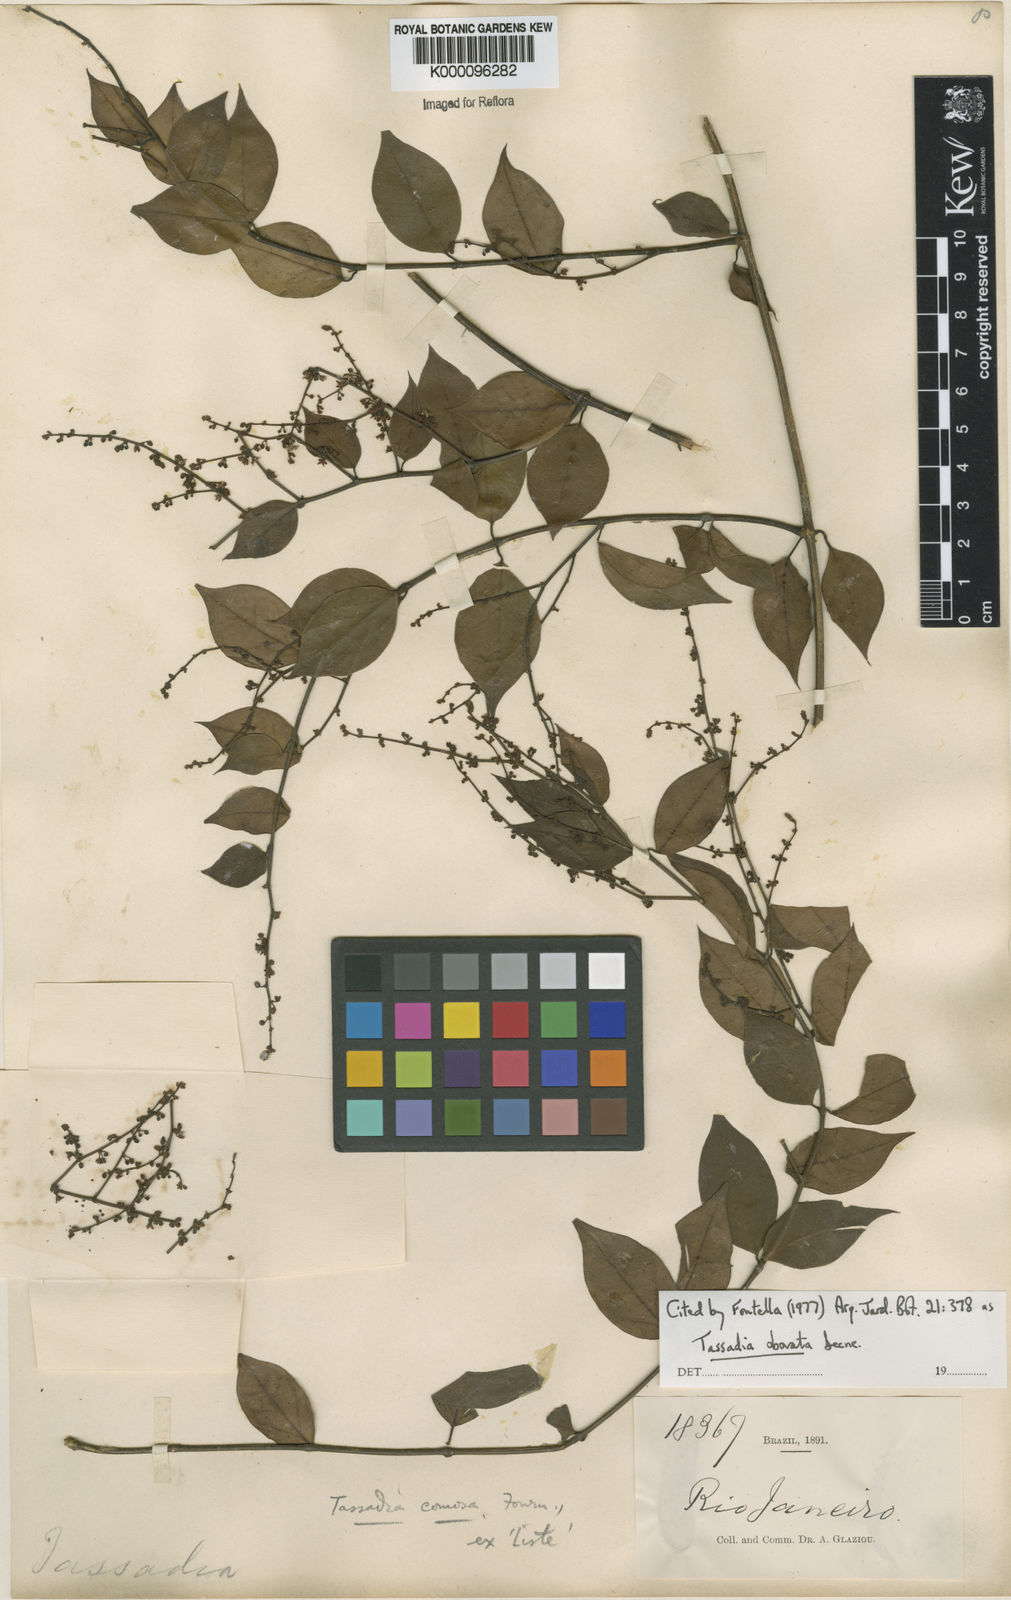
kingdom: Plantae
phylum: Tracheophyta
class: Magnoliopsida
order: Gentianales
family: Apocynaceae
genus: Tassadia
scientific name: Tassadia obovata
